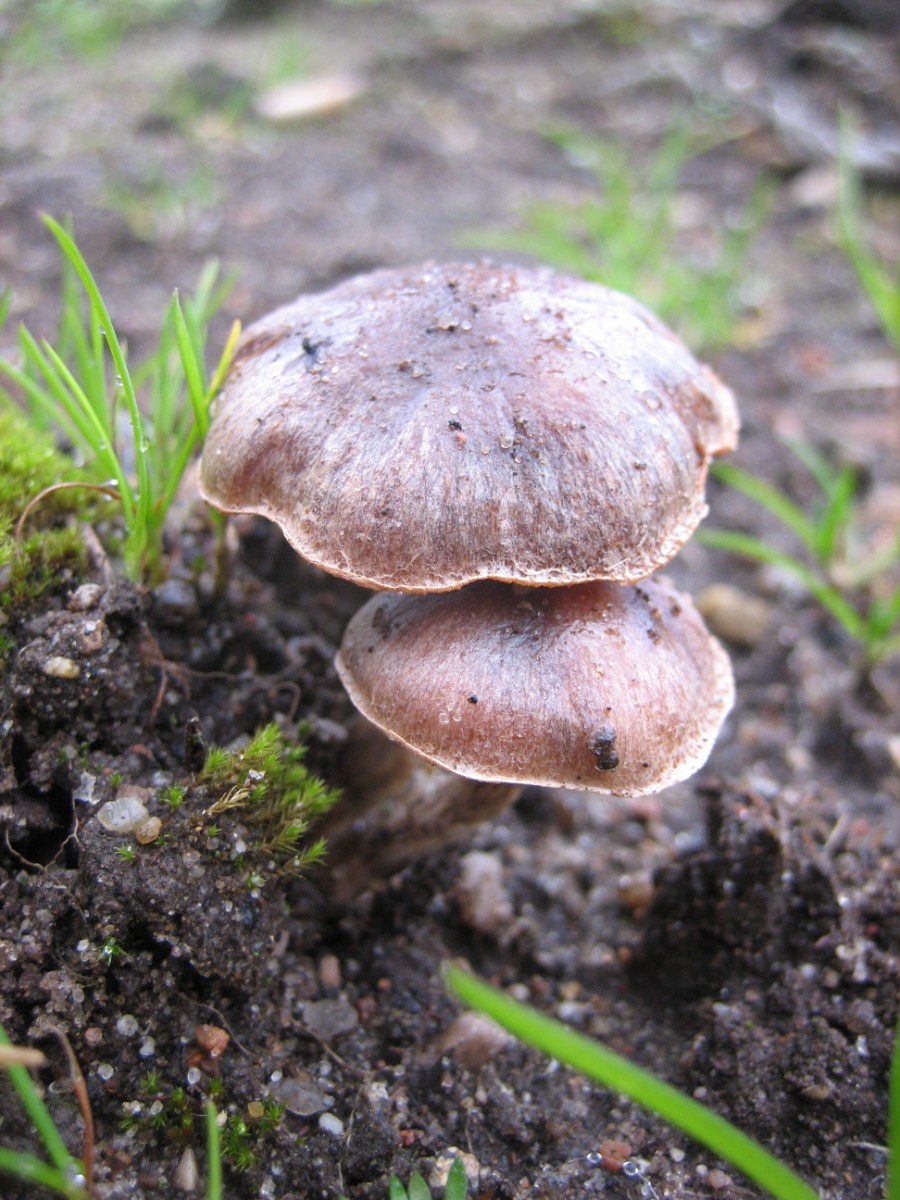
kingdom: Fungi
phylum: Basidiomycota
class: Agaricomycetes
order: Agaricales
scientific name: Agaricales
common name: champignonordenen
